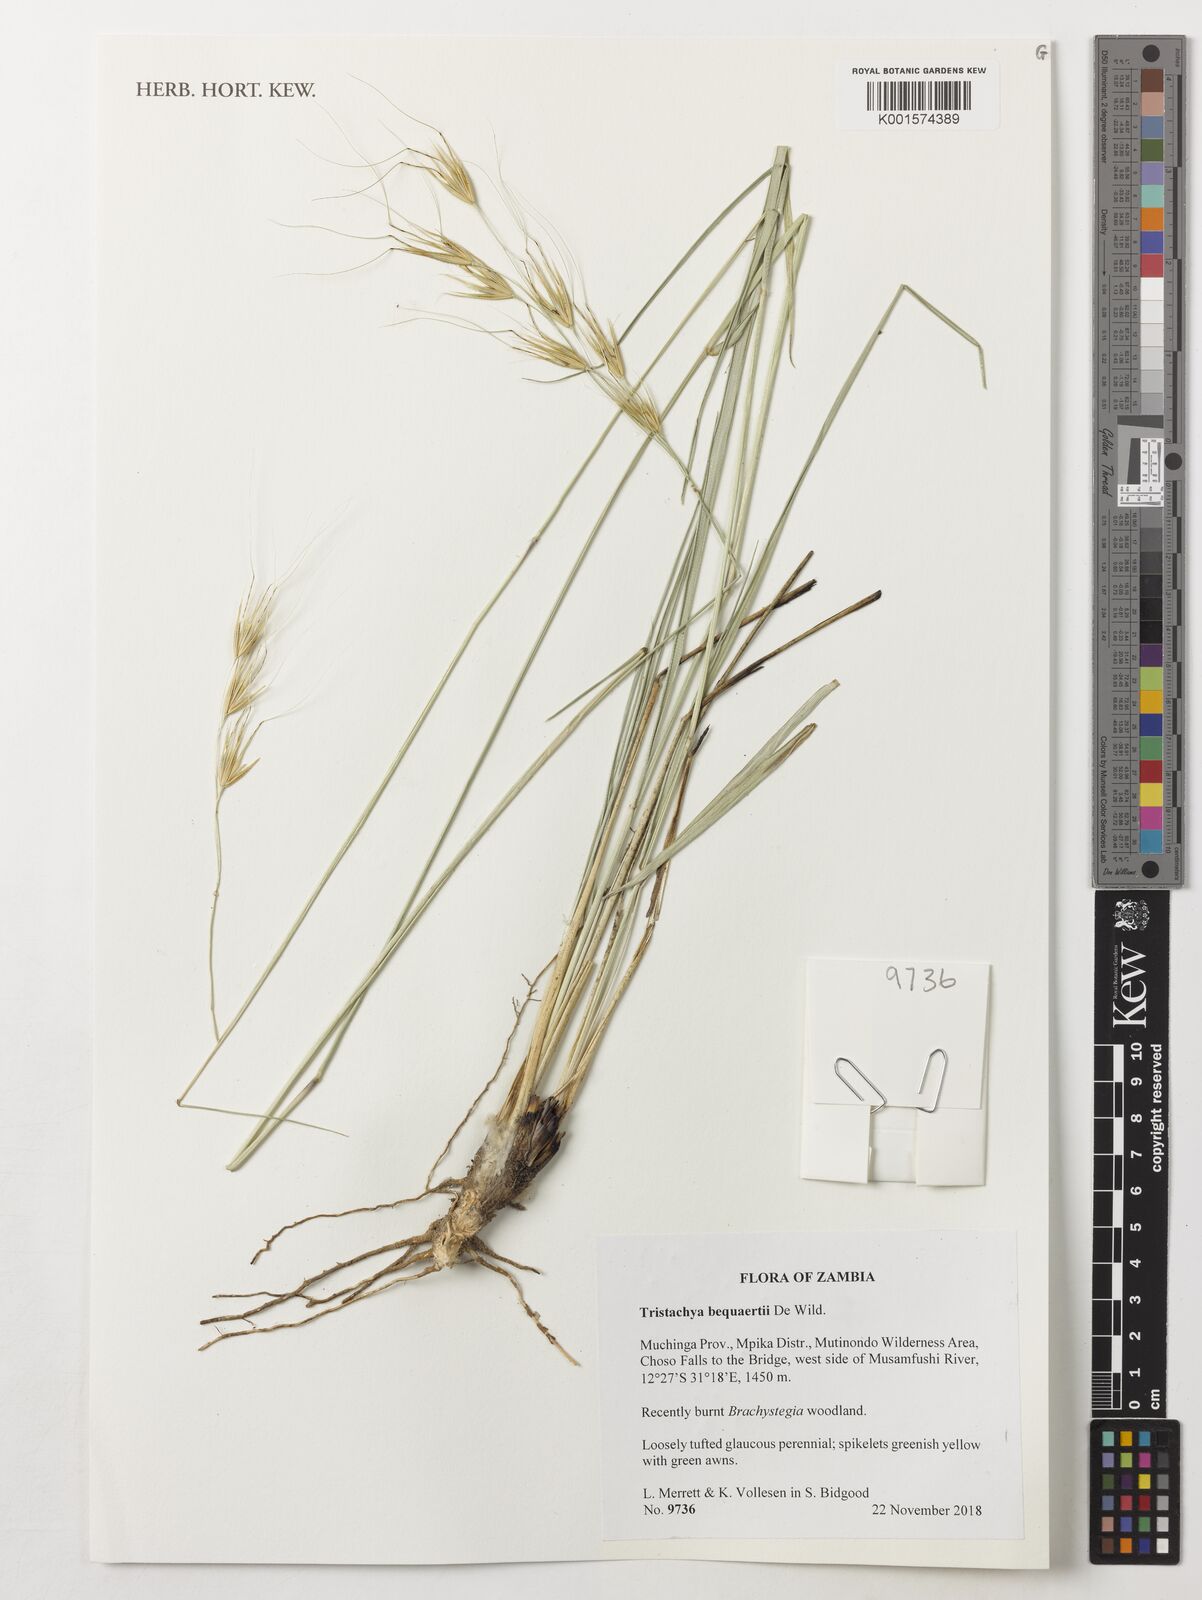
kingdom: Plantae
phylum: Tracheophyta
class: Liliopsida
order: Poales
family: Poaceae
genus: Tristachya
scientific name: Tristachya bequaertii
